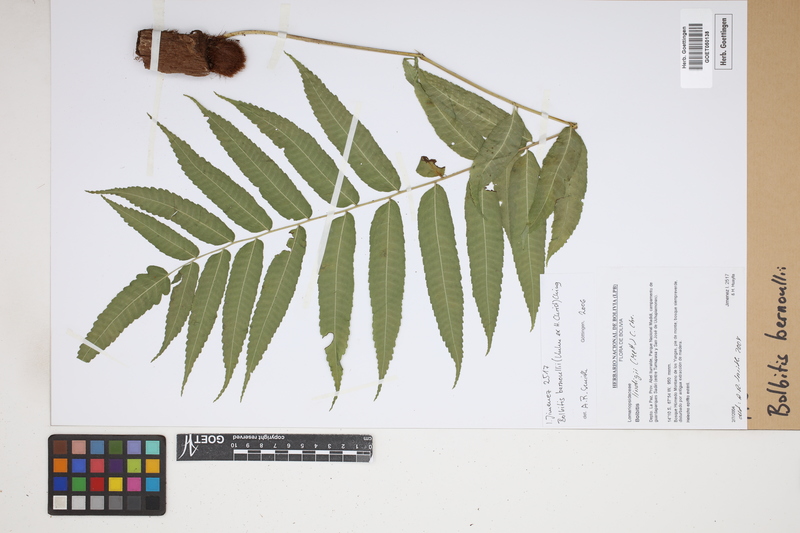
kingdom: Plantae
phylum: Tracheophyta
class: Polypodiopsida
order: Polypodiales
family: Dryopteridaceae
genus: Mickelia
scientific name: Mickelia bernoullii
